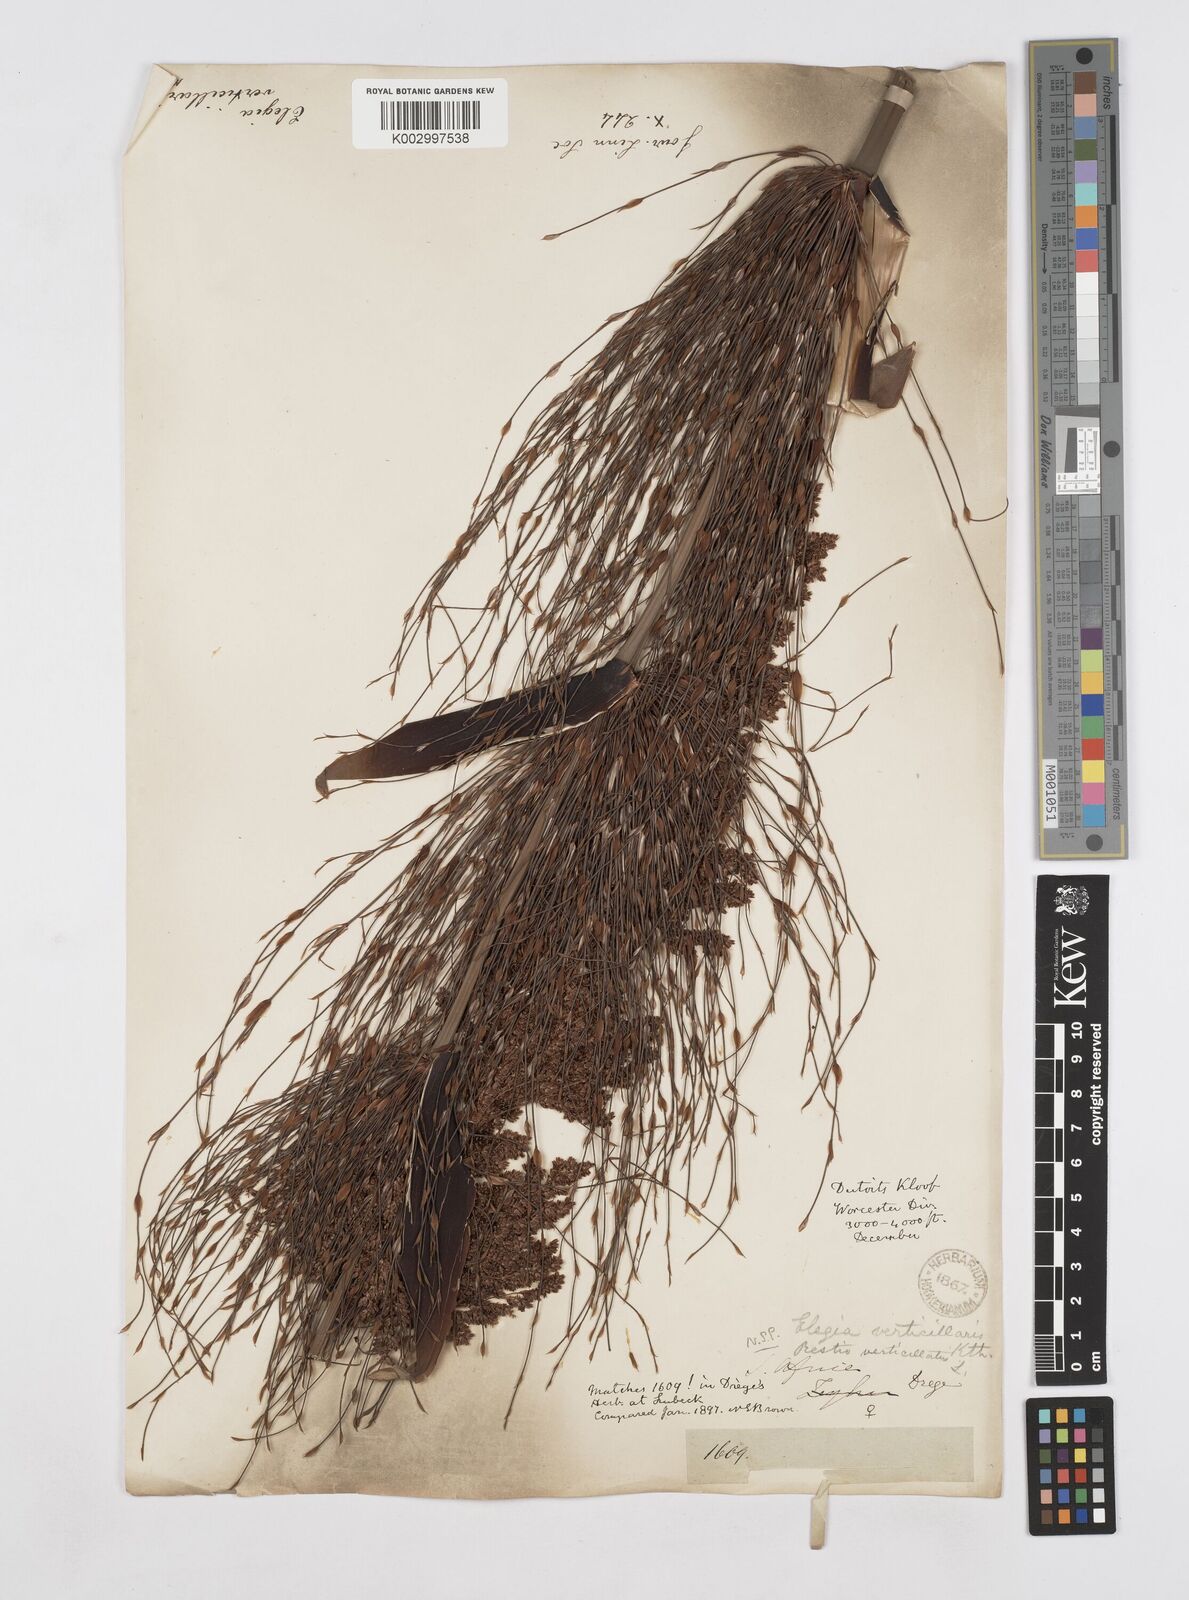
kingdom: Plantae
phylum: Tracheophyta
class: Liliopsida
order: Poales
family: Restionaceae
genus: Elegia
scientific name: Elegia capensis
